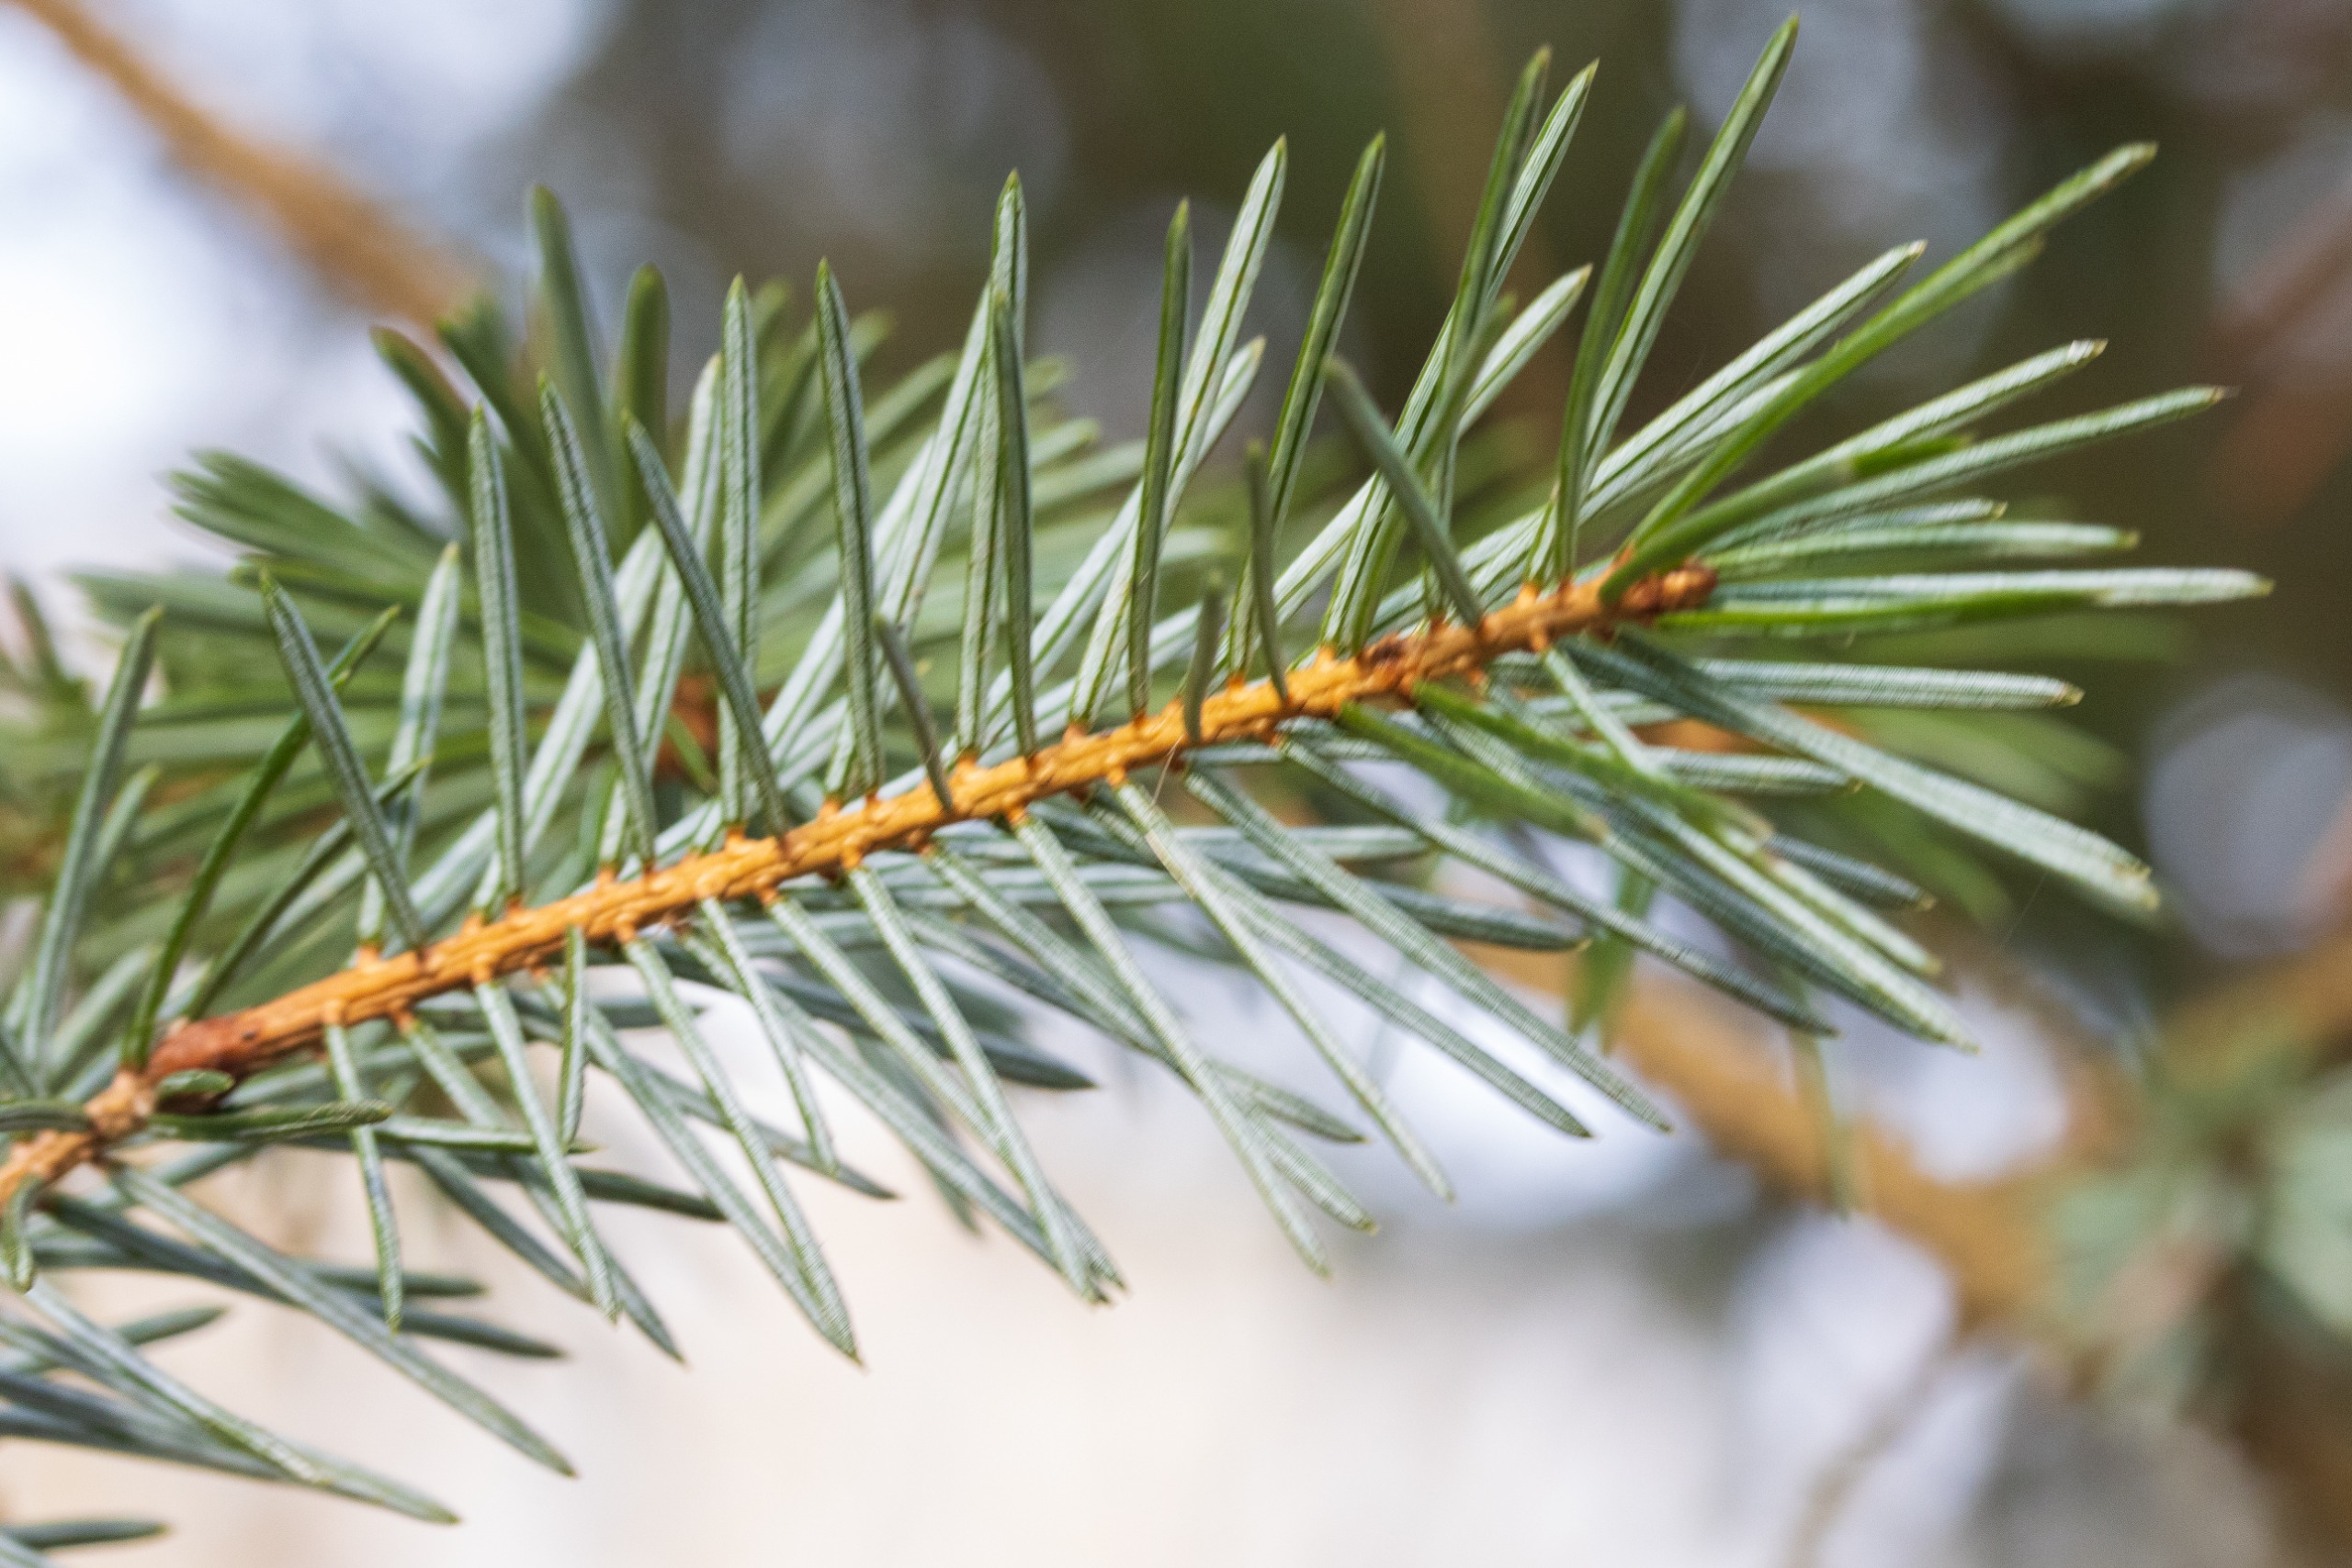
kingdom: Plantae
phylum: Tracheophyta
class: Pinopsida
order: Pinales
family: Pinaceae
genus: Picea
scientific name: Picea sitchensis
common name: Sitka-gran
